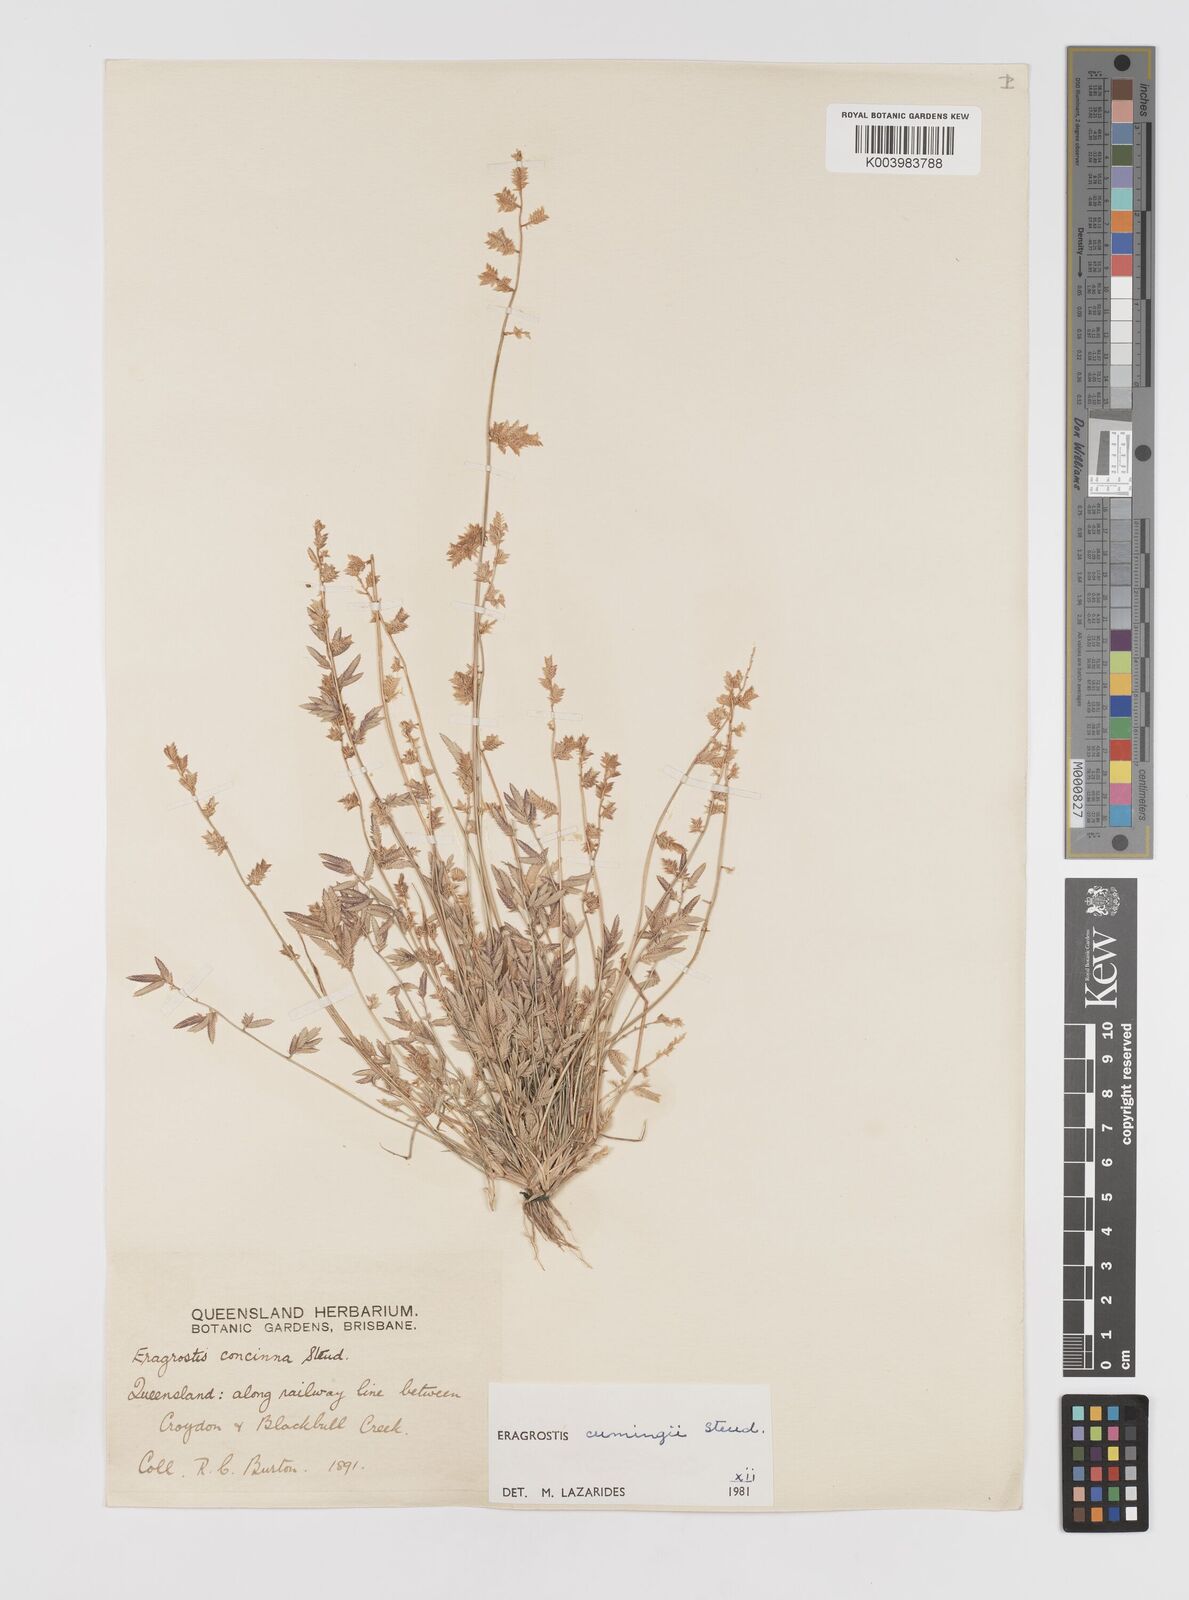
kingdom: Plantae
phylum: Tracheophyta
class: Liliopsida
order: Poales
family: Poaceae
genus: Eragrostis
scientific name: Eragrostis cumingii
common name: Cuming's lovegrass
